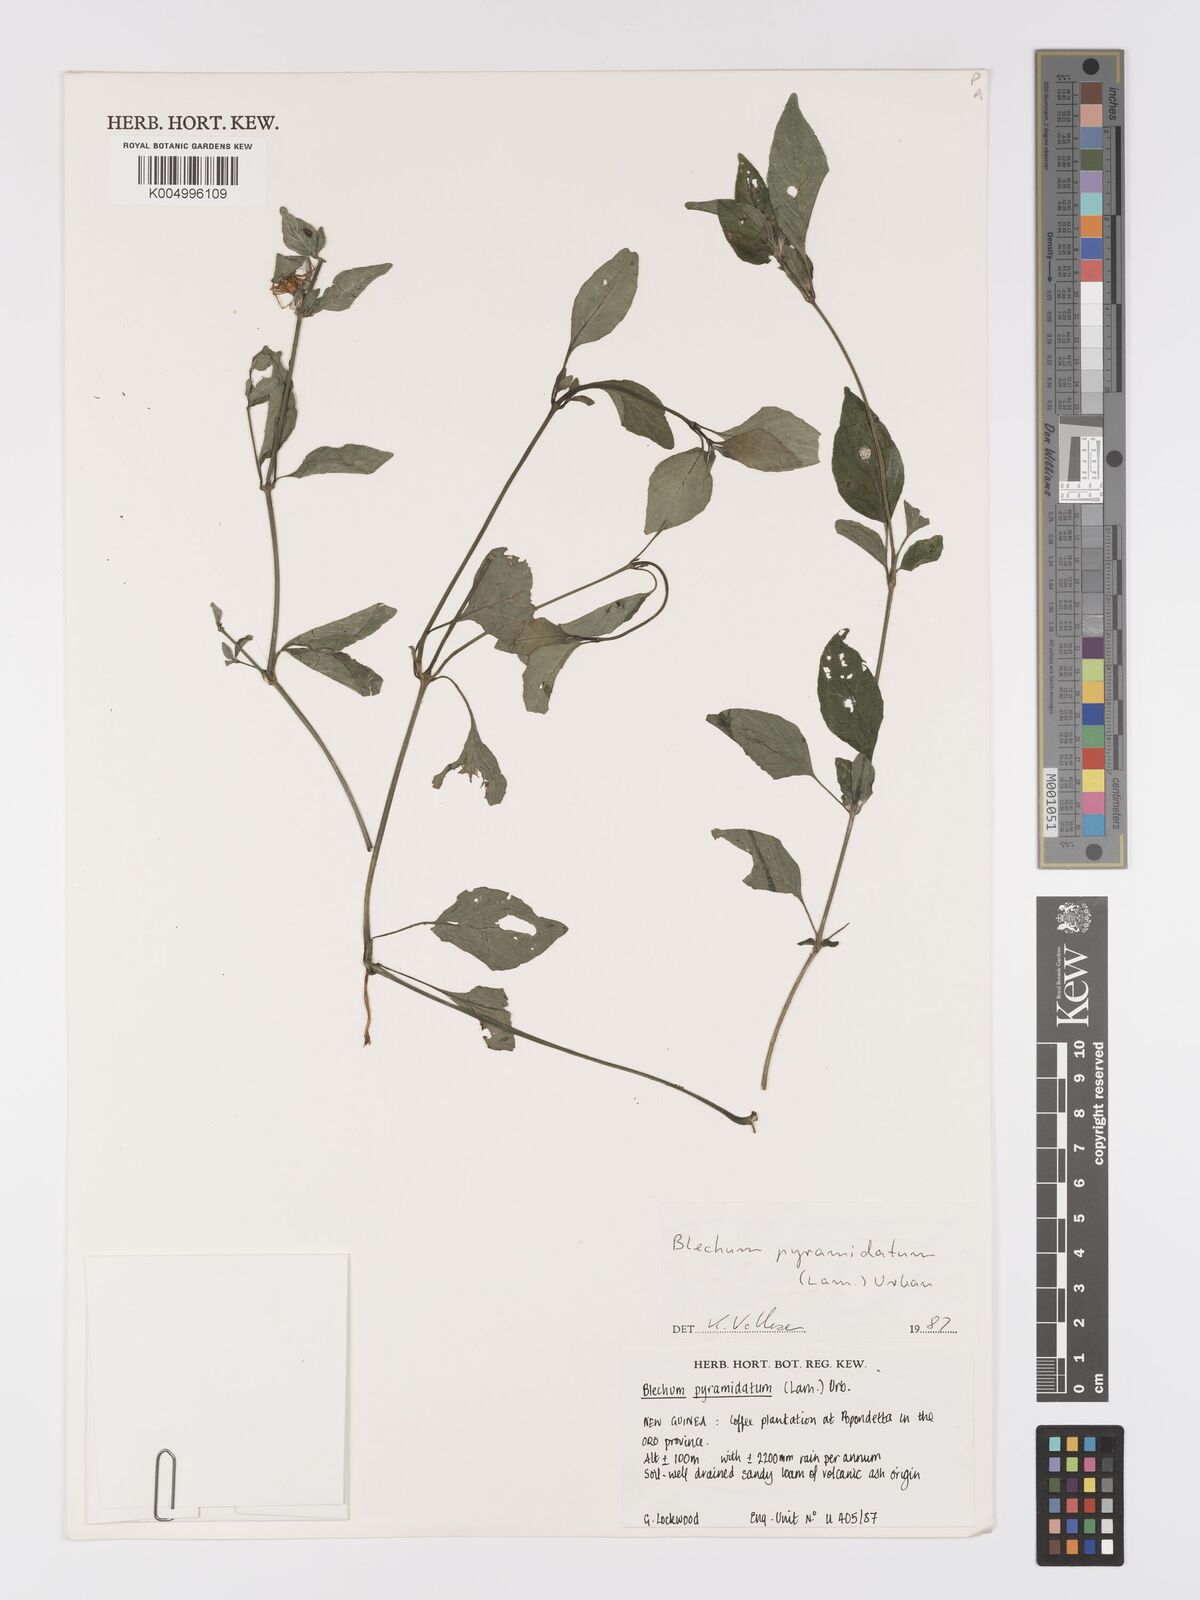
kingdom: Plantae
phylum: Tracheophyta
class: Magnoliopsida
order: Lamiales
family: Acanthaceae
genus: Ruellia
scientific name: Ruellia blechum
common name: Browne's blechum
